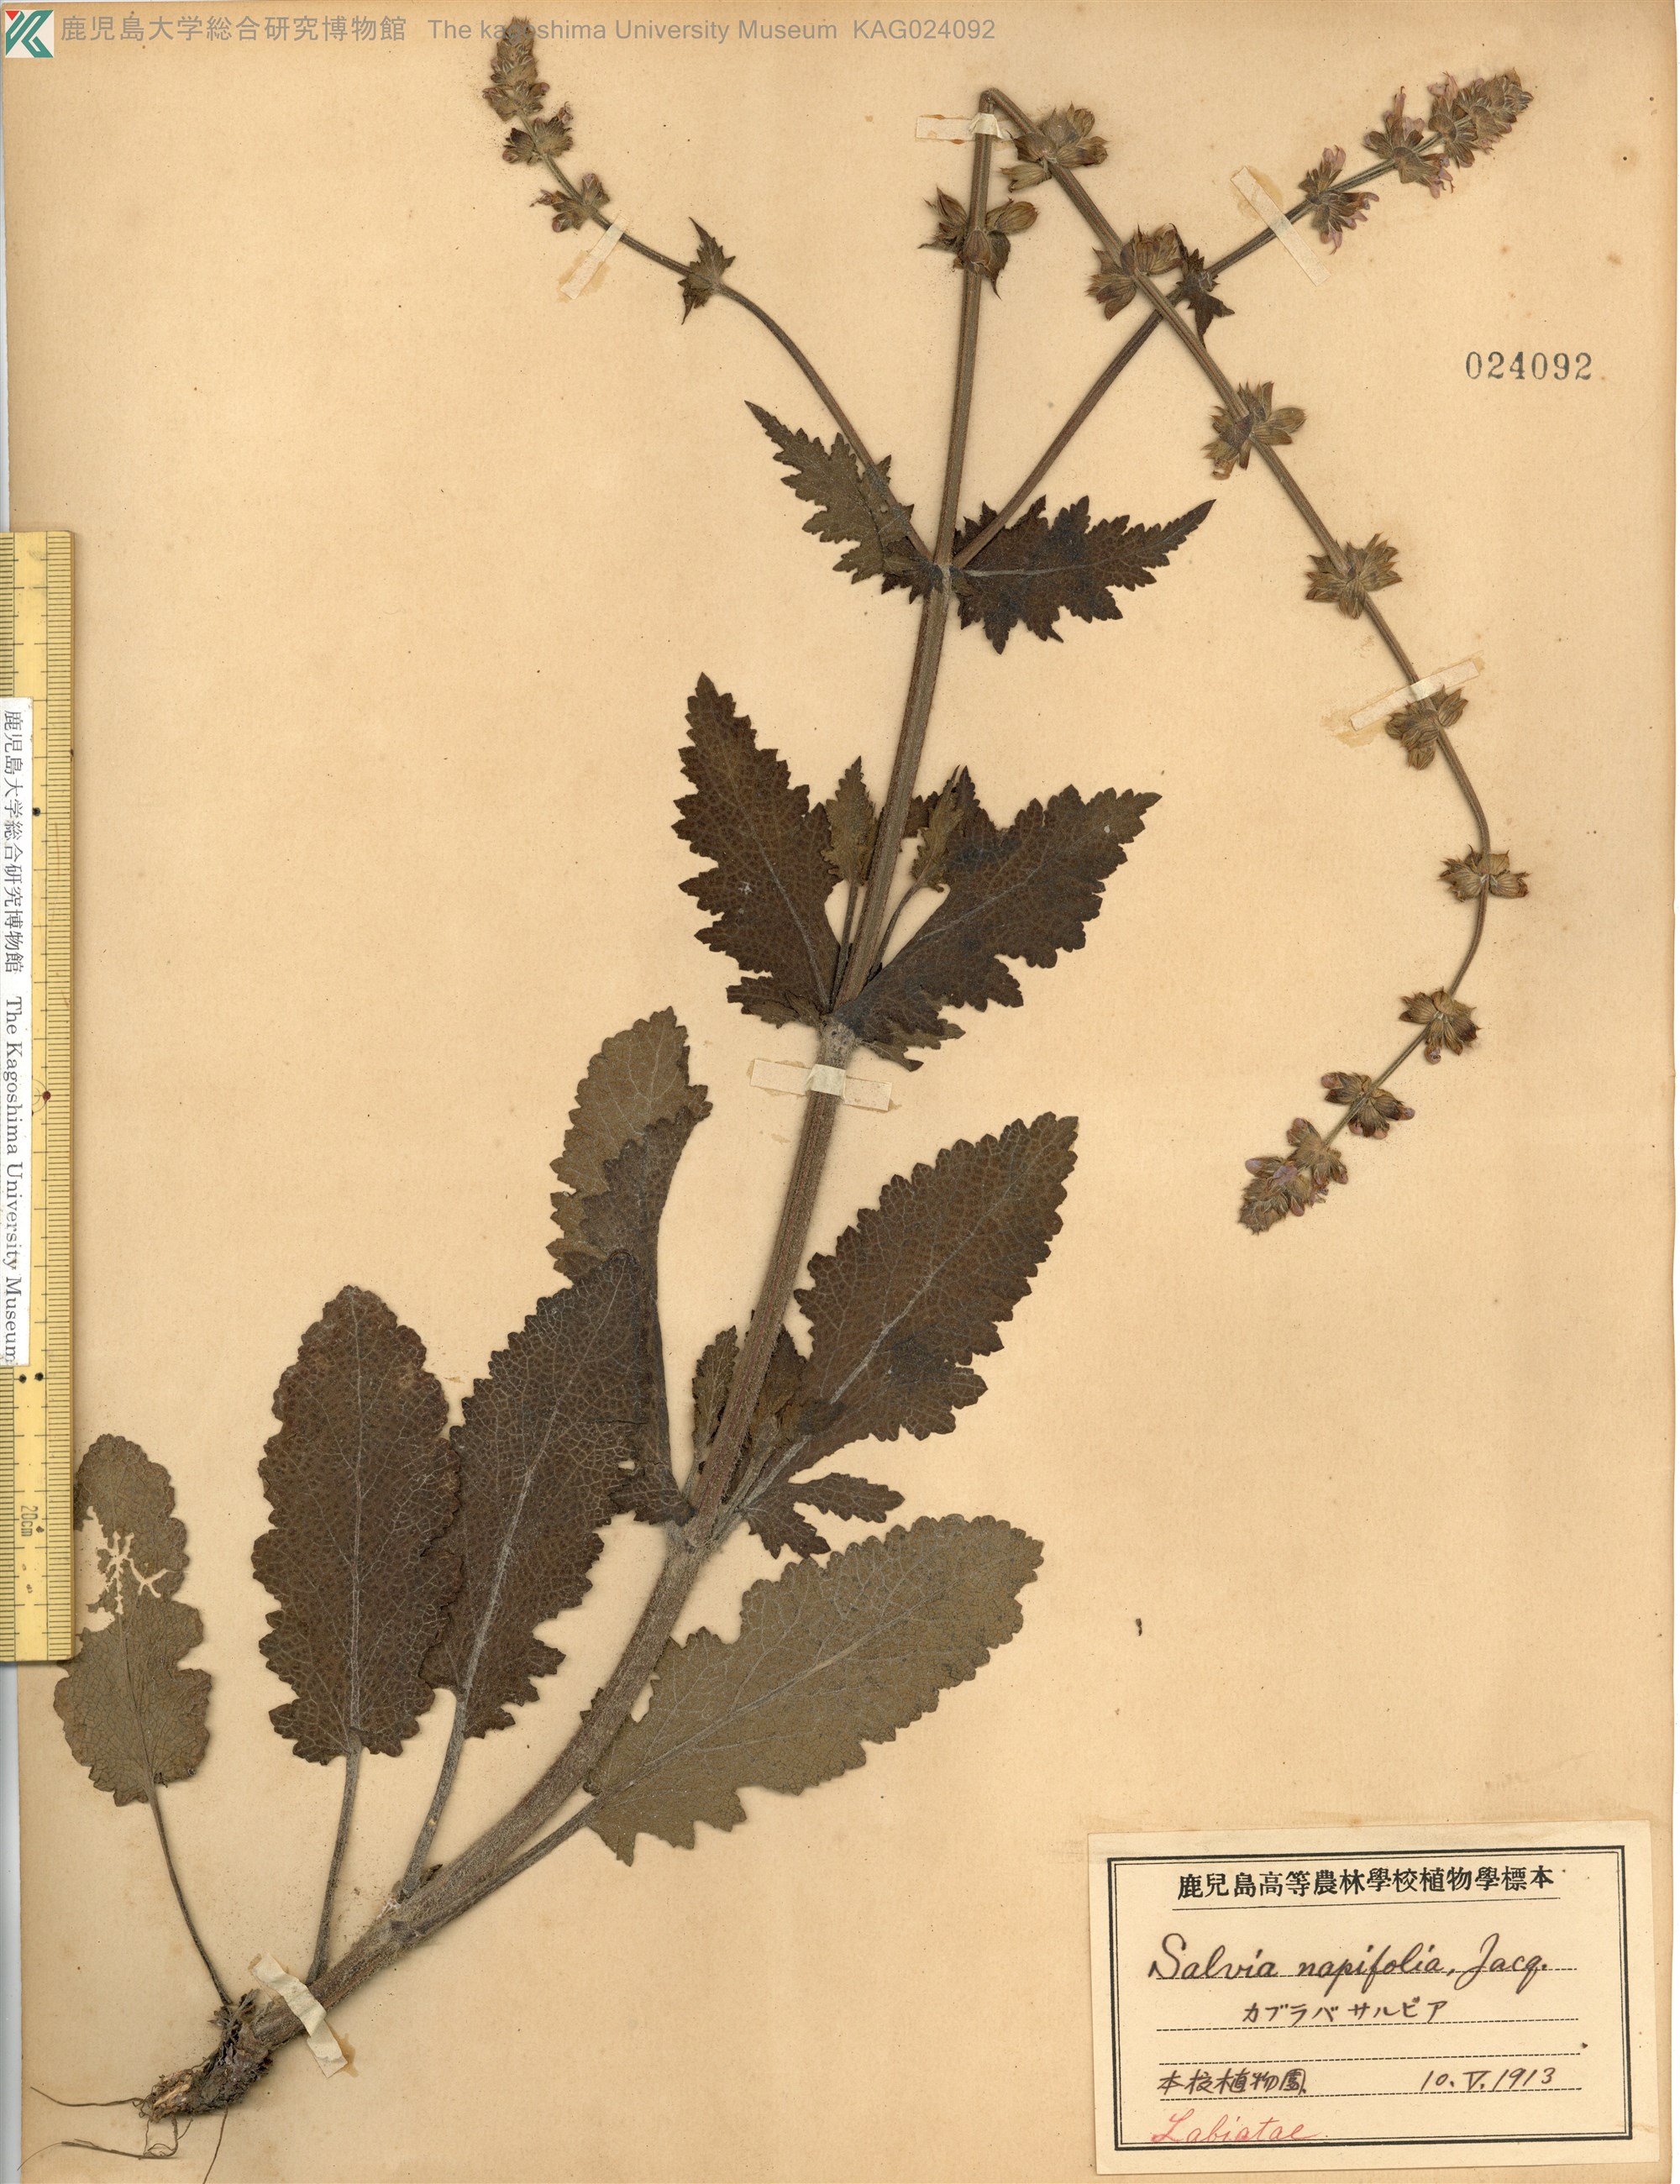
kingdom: Plantae
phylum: Tracheophyta
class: Magnoliopsida
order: Lamiales
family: Lamiaceae
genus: Salvia
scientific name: Salvia napifolia
